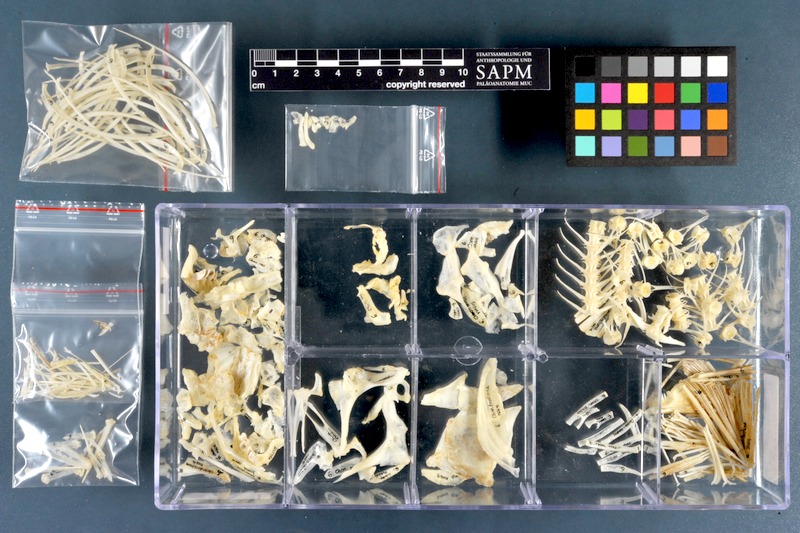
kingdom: Animalia
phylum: Chordata
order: Cypriniformes
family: Cyprinidae
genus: Chondrostoma
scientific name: Chondrostoma nasus
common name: Nase
